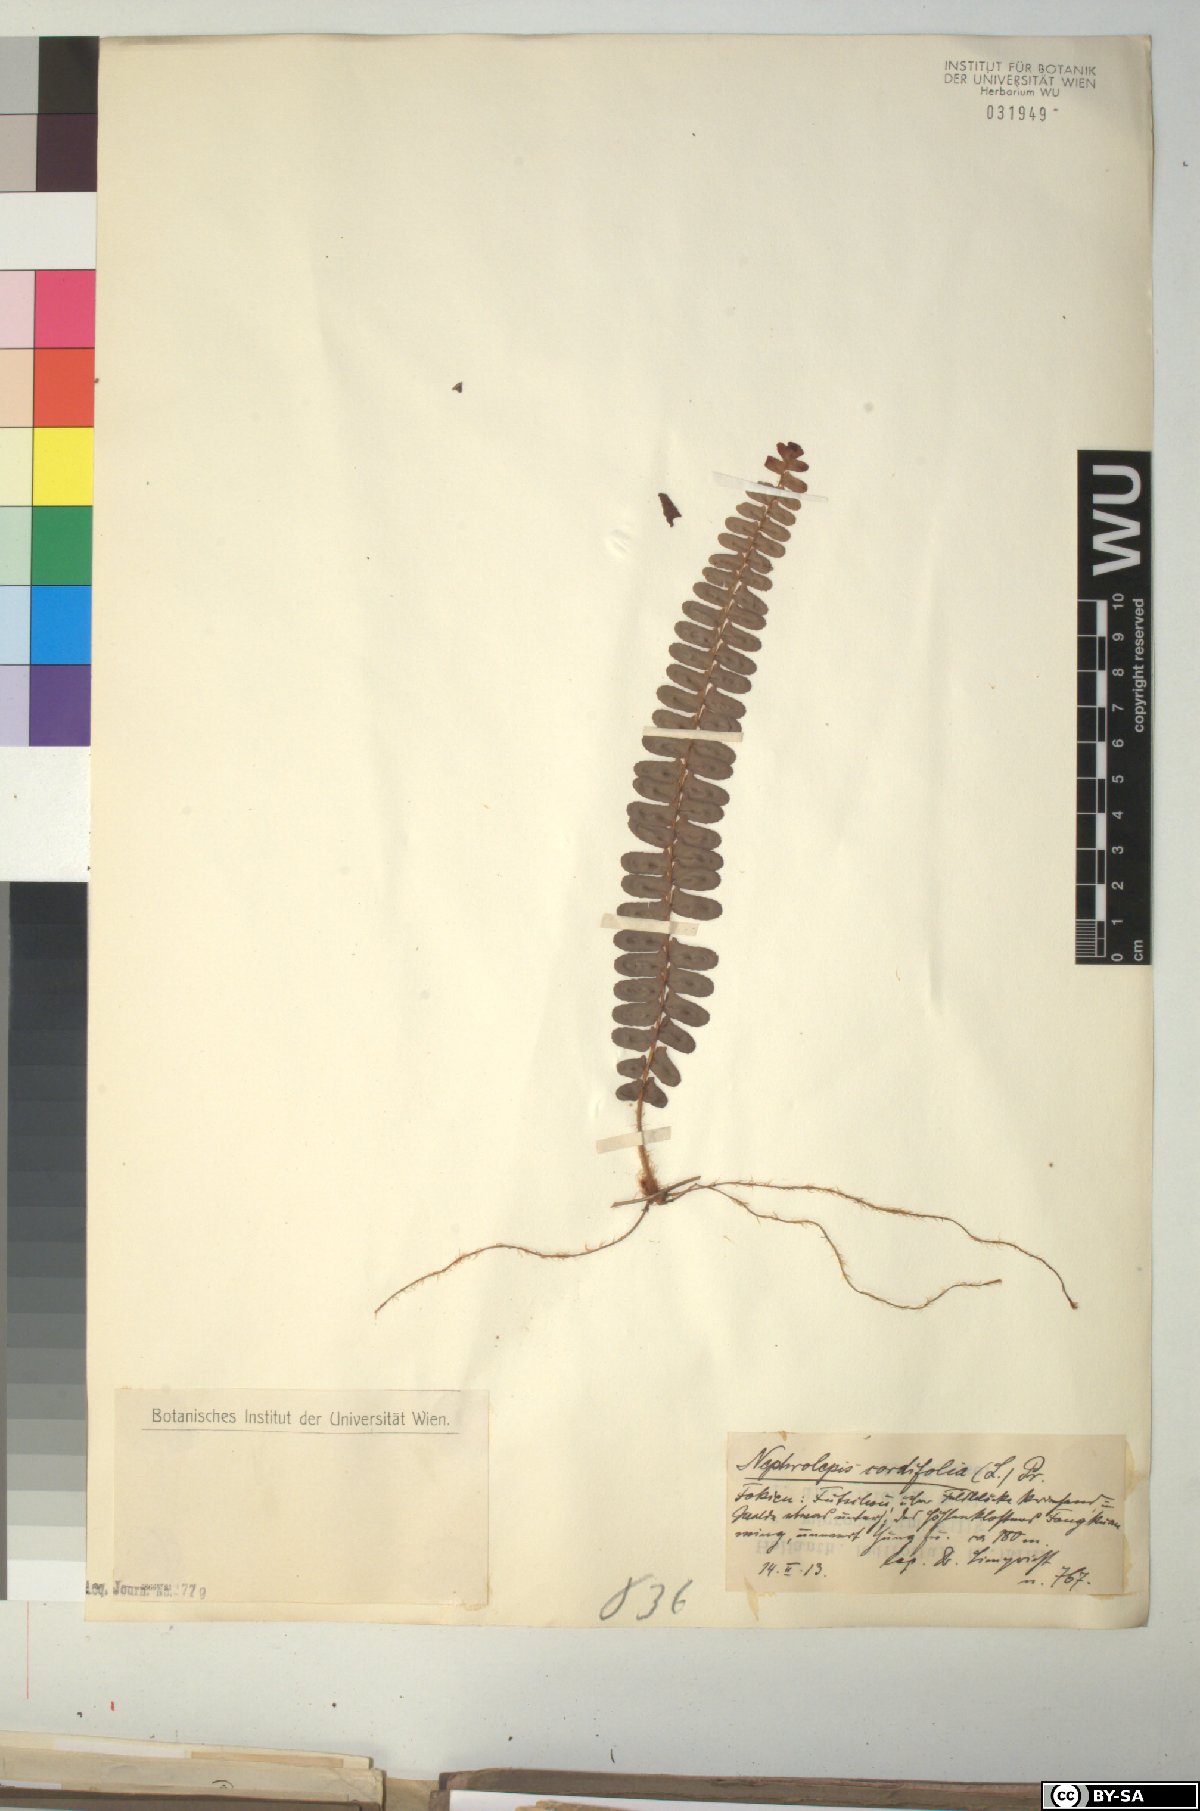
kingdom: Plantae
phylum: Tracheophyta
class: Polypodiopsida
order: Polypodiales
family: Nephrolepidaceae
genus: Nephrolepis
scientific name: Nephrolepis cordifolia
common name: Narrow swordfern
